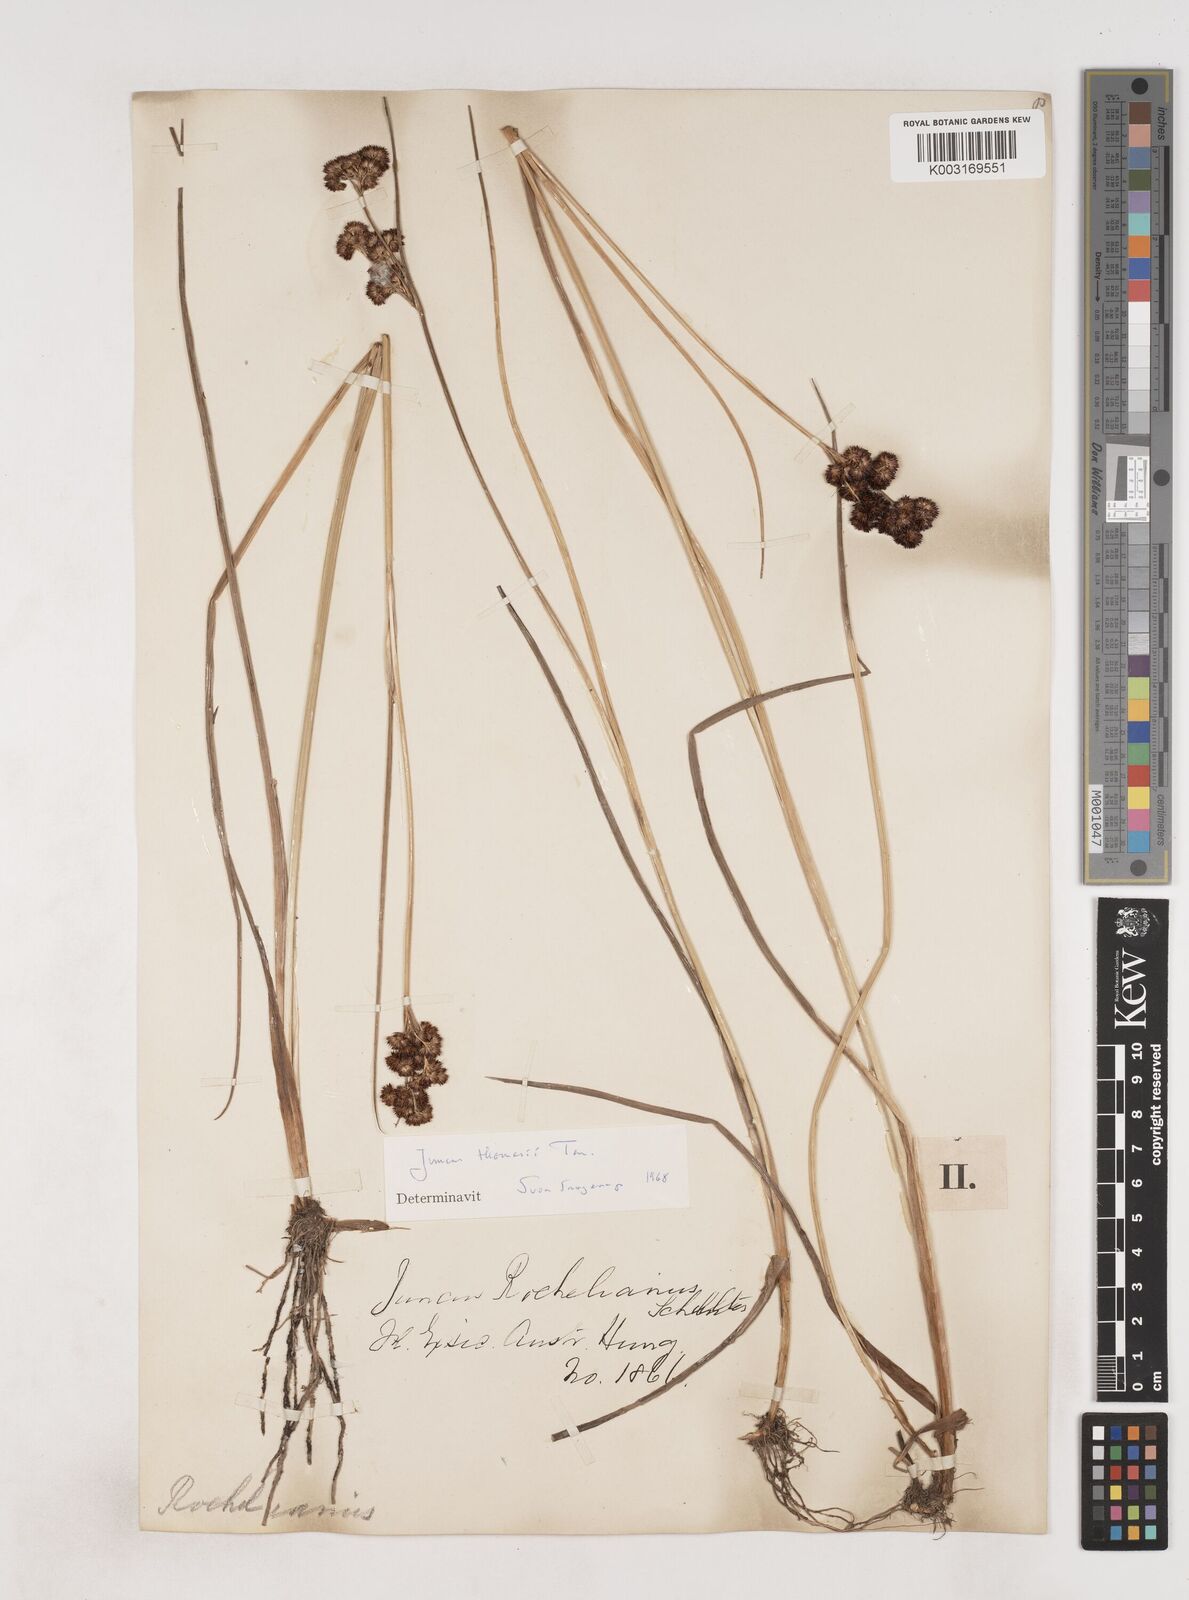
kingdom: Plantae
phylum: Tracheophyta
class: Liliopsida
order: Poales
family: Juncaceae
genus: Juncus
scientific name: Juncus thomasii
